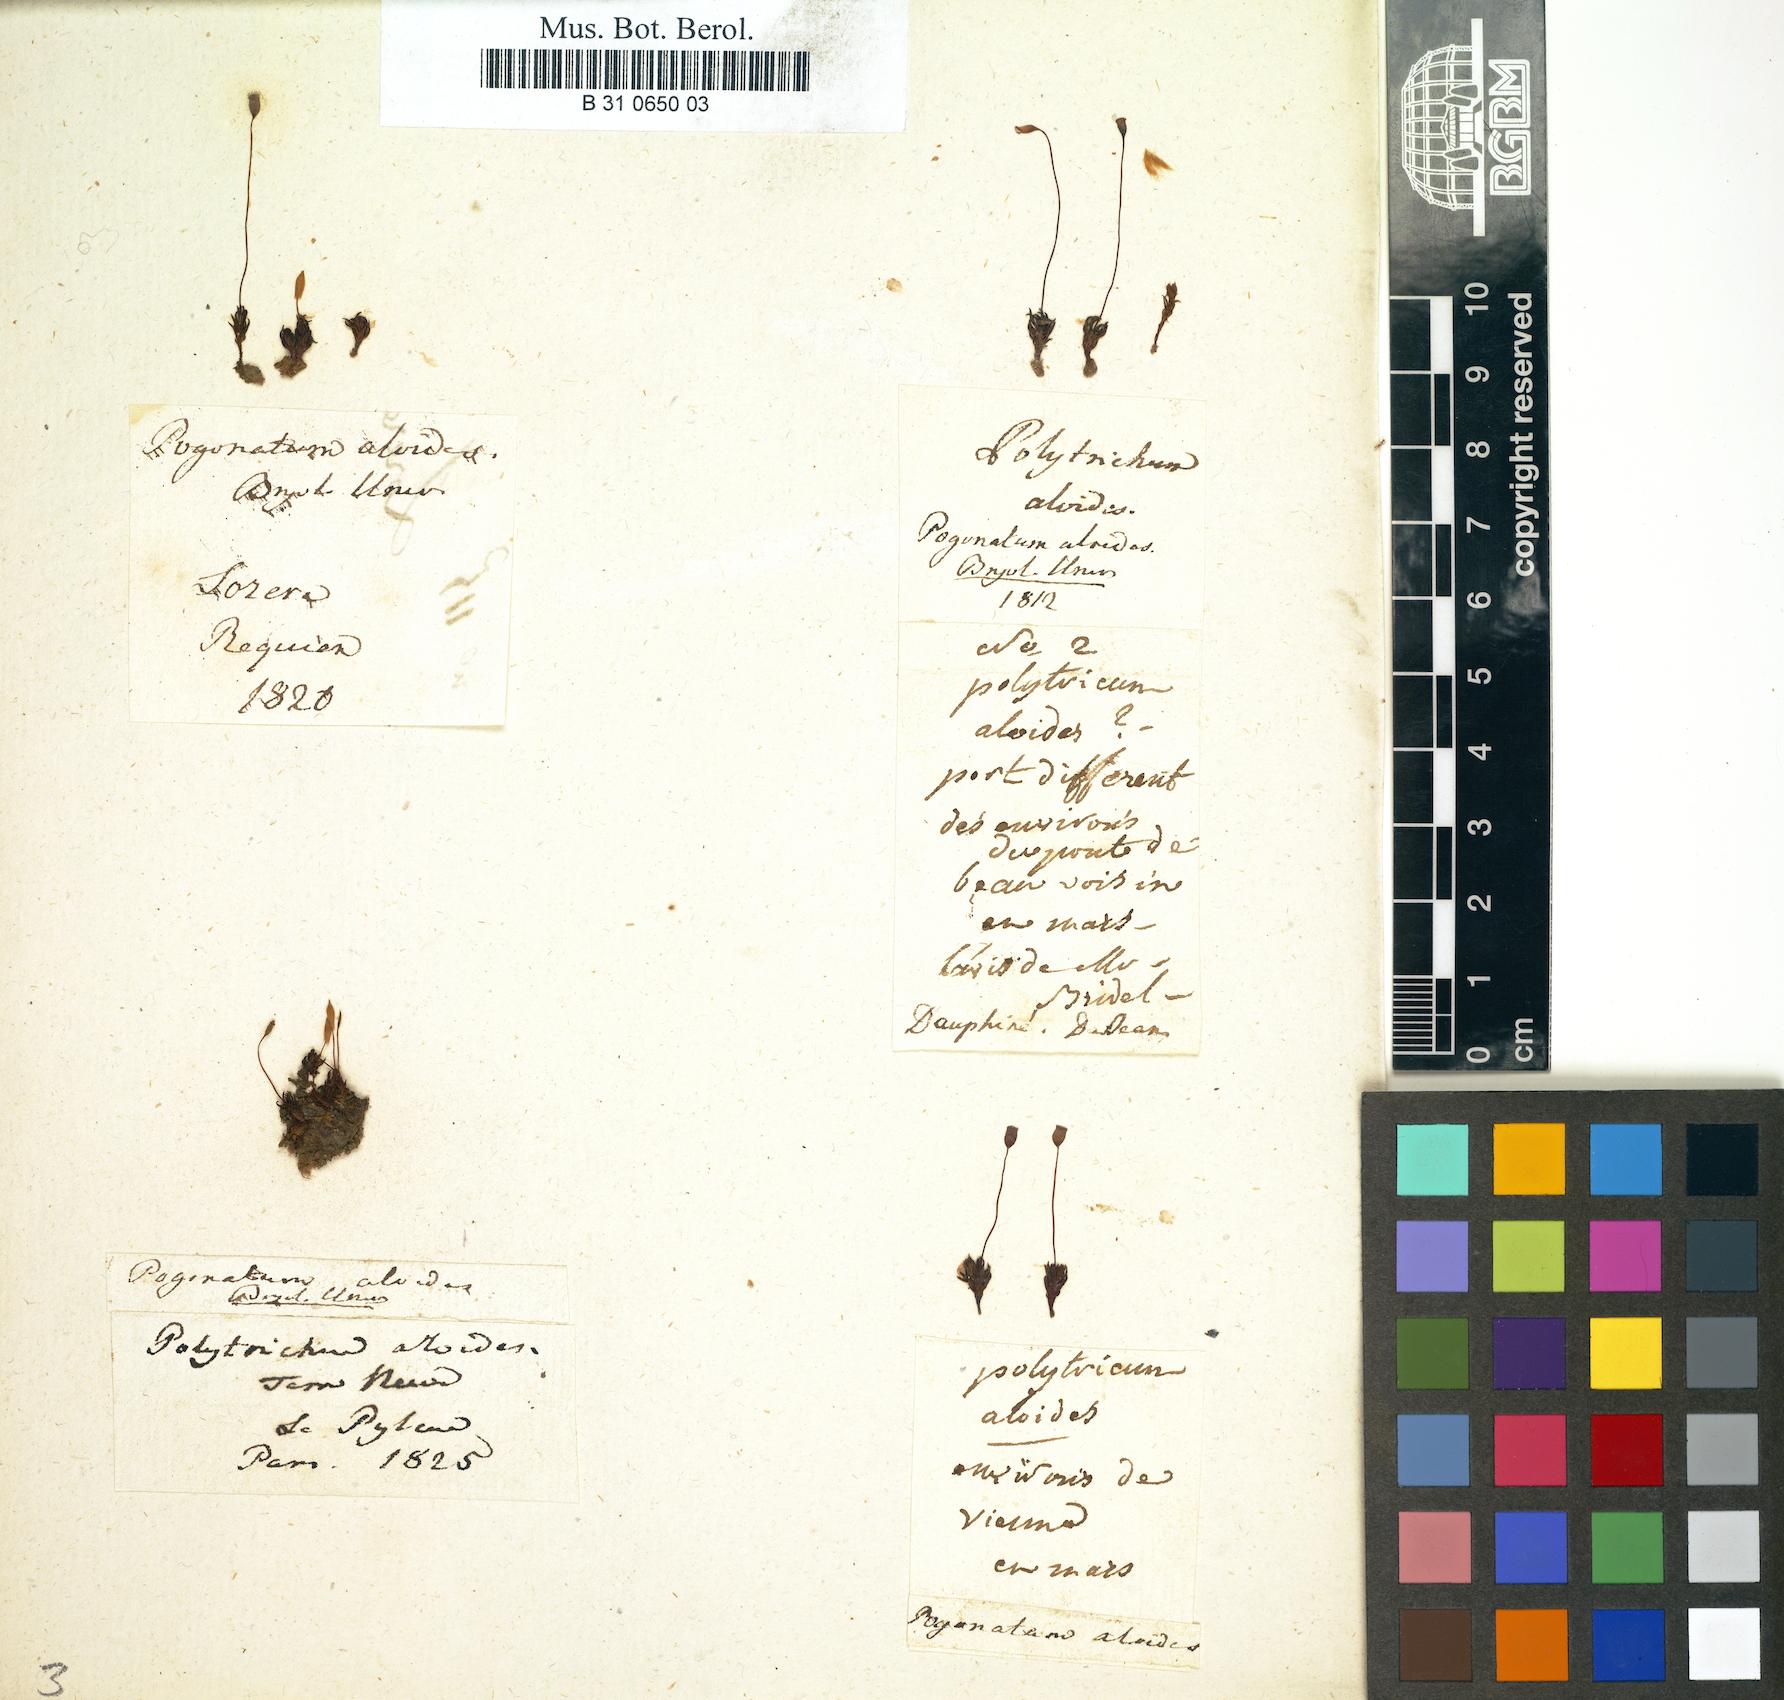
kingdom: Plantae
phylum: Bryophyta
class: Polytrichopsida
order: Polytrichales
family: Polytrichaceae
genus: Pogonatum
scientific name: Pogonatum aloides
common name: Aloe haircap
